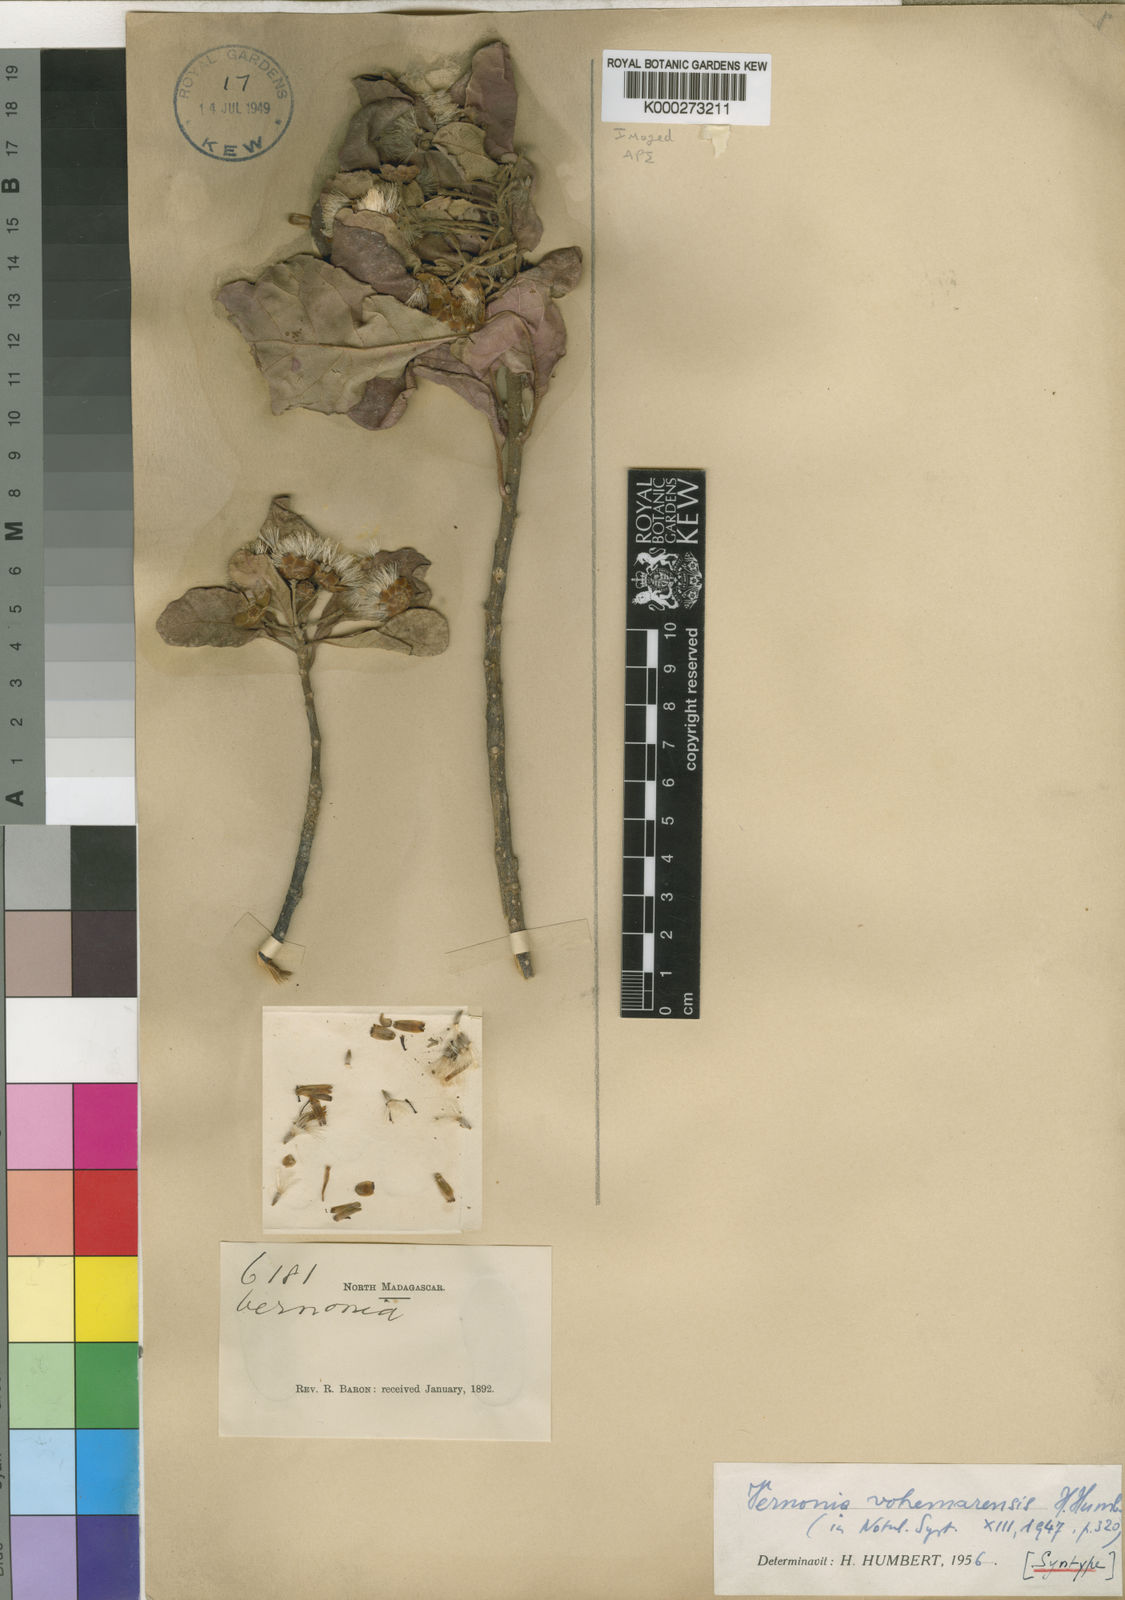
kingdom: Plantae
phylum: Tracheophyta
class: Magnoliopsida
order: Asterales
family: Asteraceae
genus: Vernonia
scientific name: Vernonia vohemarensis
